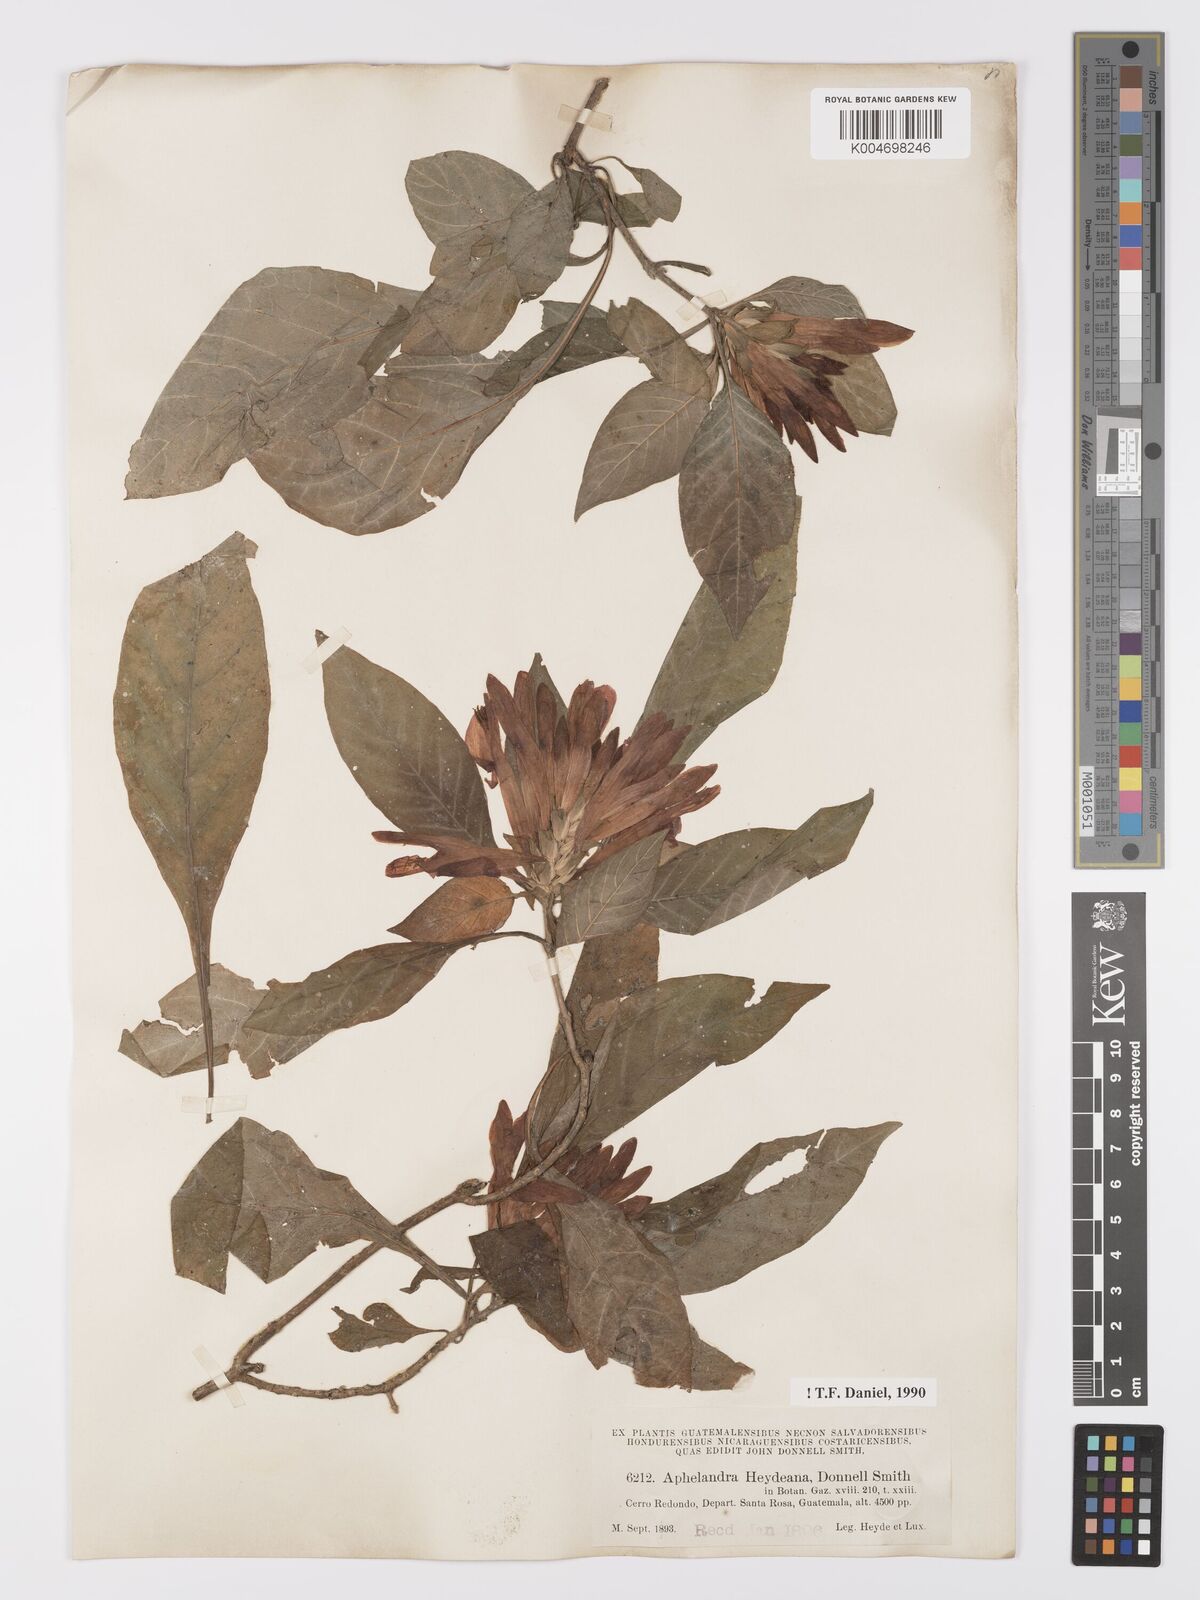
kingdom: Plantae
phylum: Tracheophyta
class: Magnoliopsida
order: Lamiales
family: Acanthaceae
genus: Aphelandra
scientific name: Aphelandra heydeana
